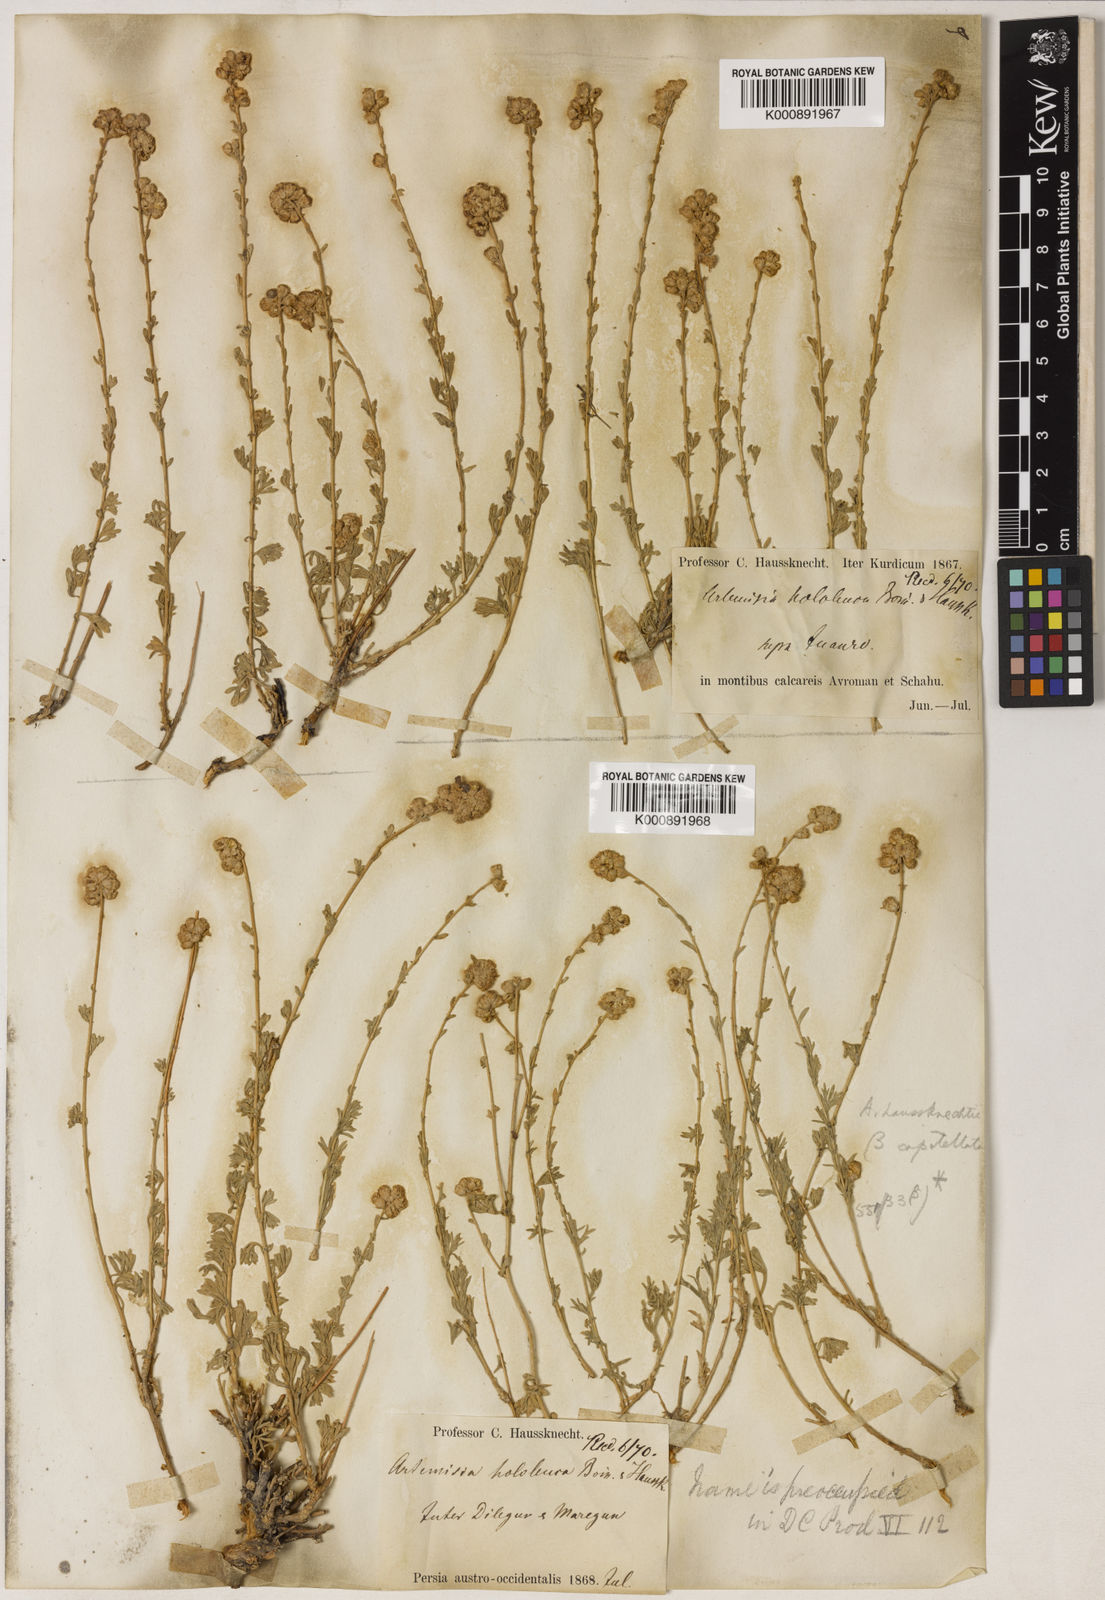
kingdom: Plantae
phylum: Tracheophyta
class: Magnoliopsida
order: Asterales
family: Asteraceae
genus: Artemisia
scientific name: Artemisia haussknechtii
